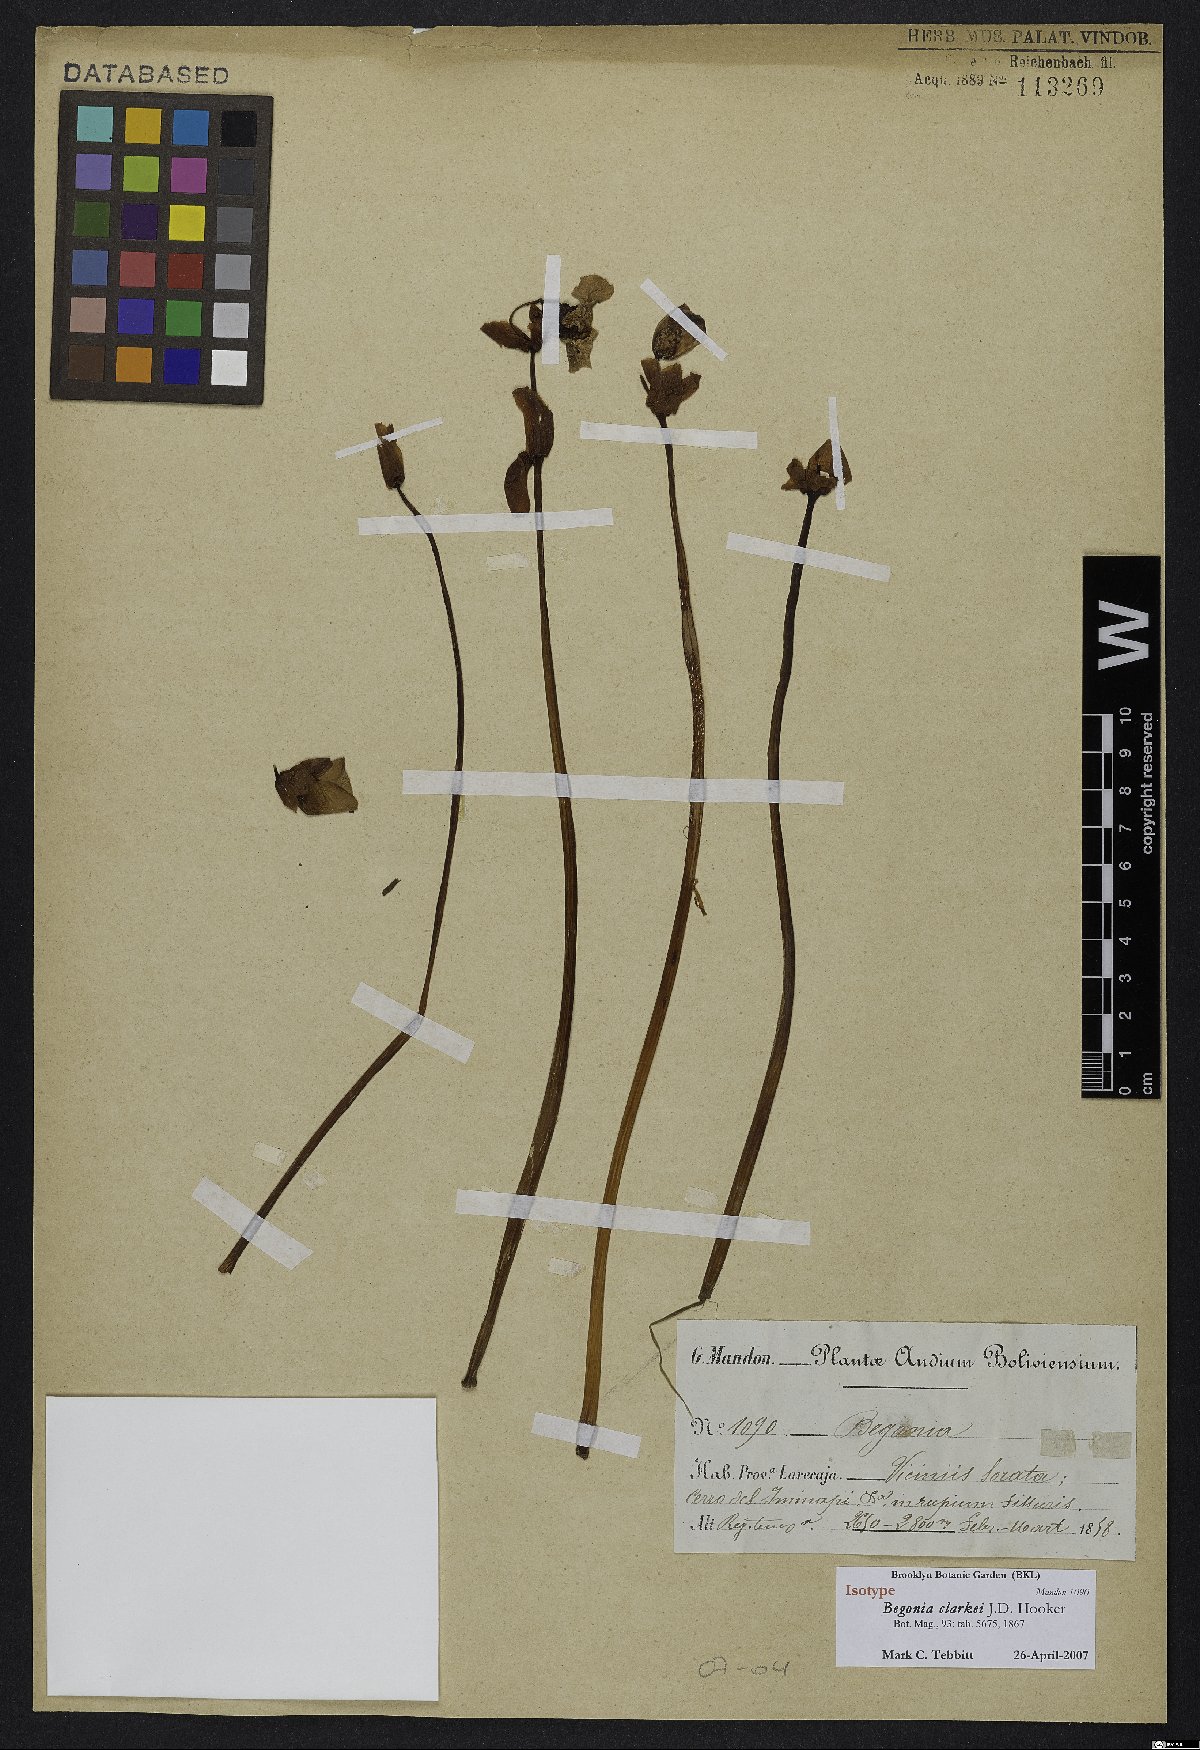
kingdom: Plantae
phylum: Tracheophyta
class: Magnoliopsida
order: Cucurbitales
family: Begoniaceae
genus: Begonia
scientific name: Begonia clarkei
